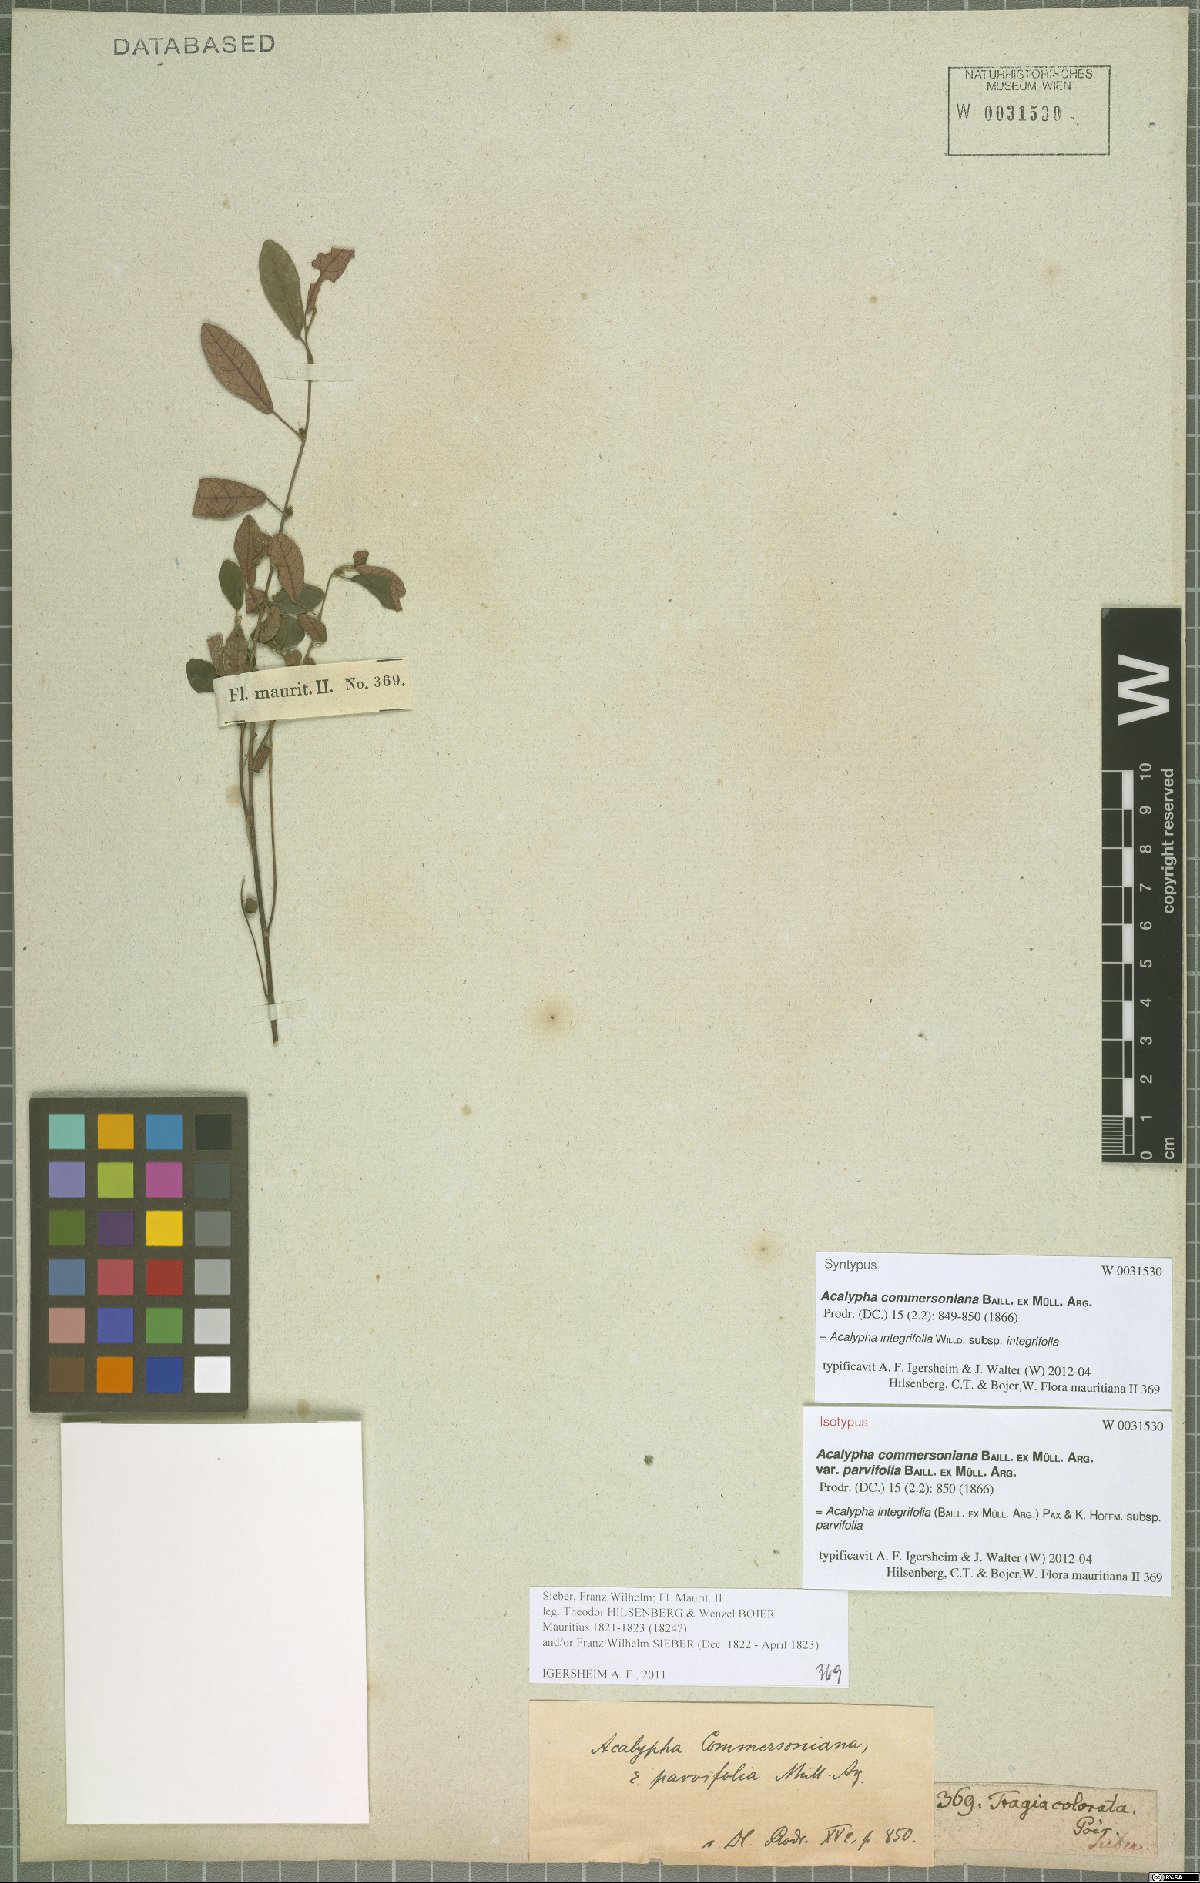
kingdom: Plantae
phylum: Tracheophyta
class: Magnoliopsida
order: Malpighiales
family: Euphorbiaceae
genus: Acalypha
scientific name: Acalypha integrifolia
